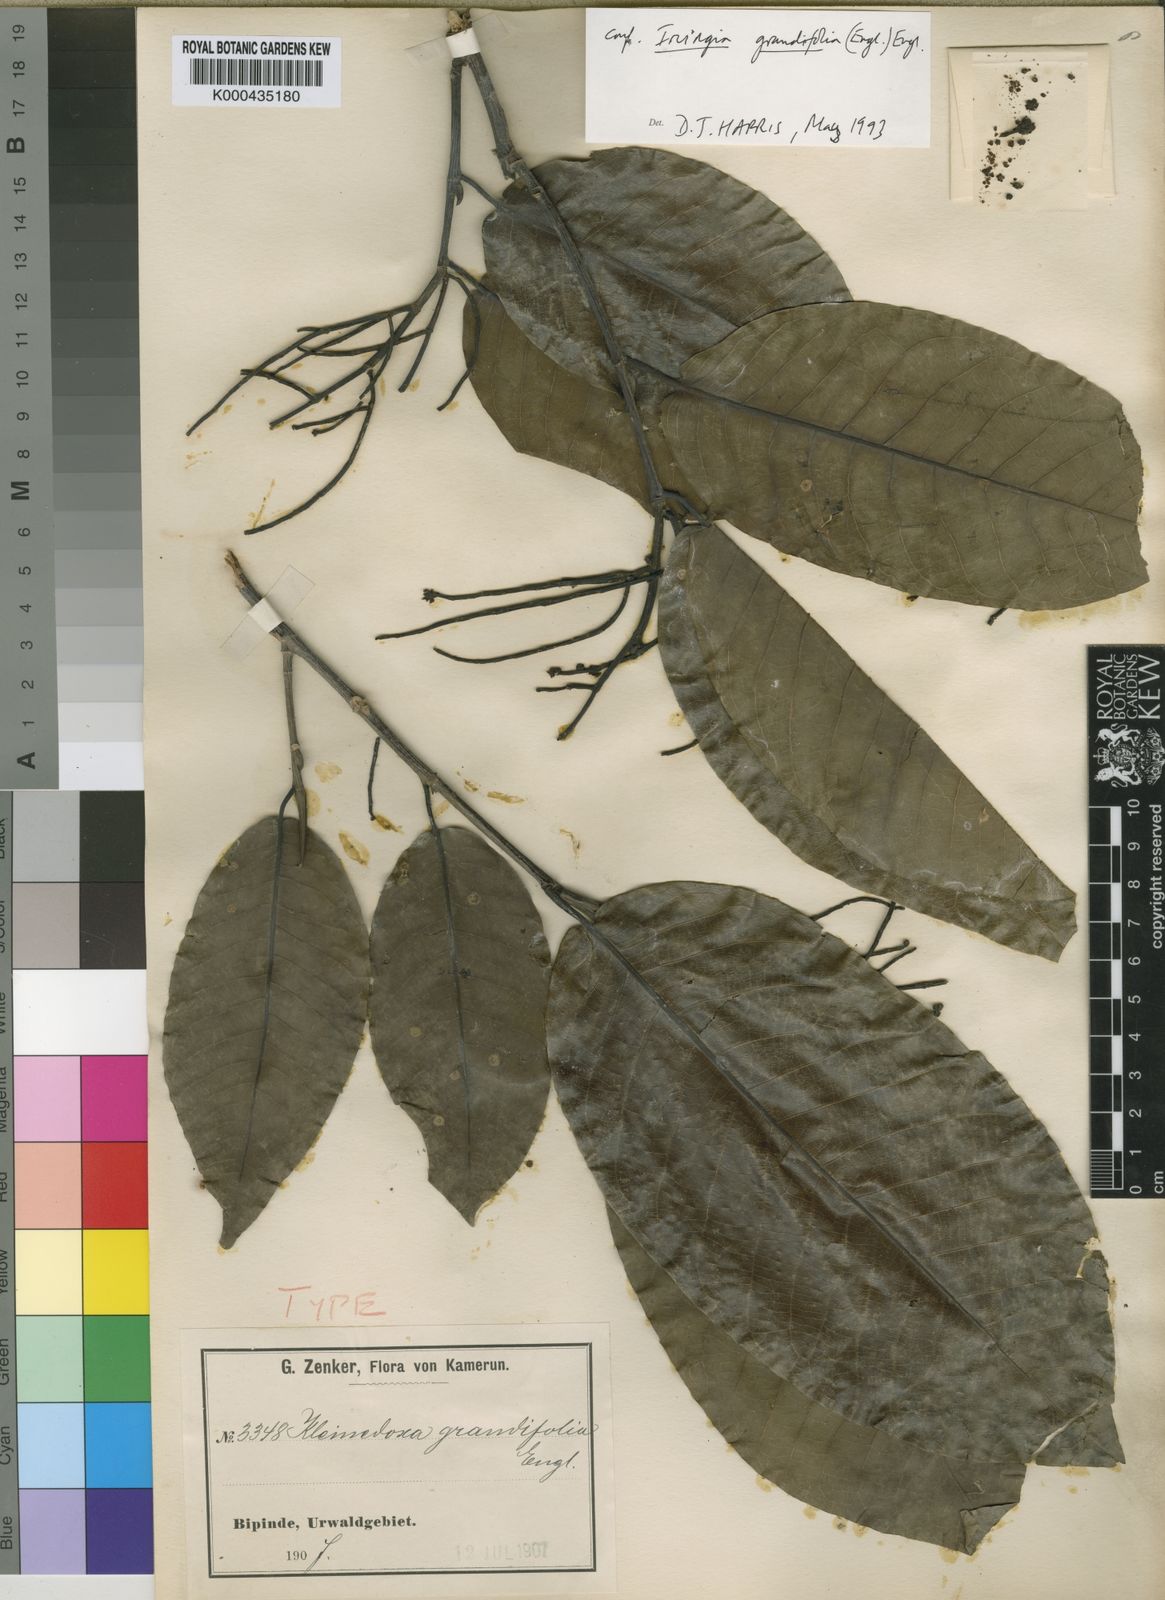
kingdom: Plantae
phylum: Tracheophyta
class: Magnoliopsida
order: Malpighiales
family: Irvingiaceae
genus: Irvingia
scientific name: Irvingia grandifolia
